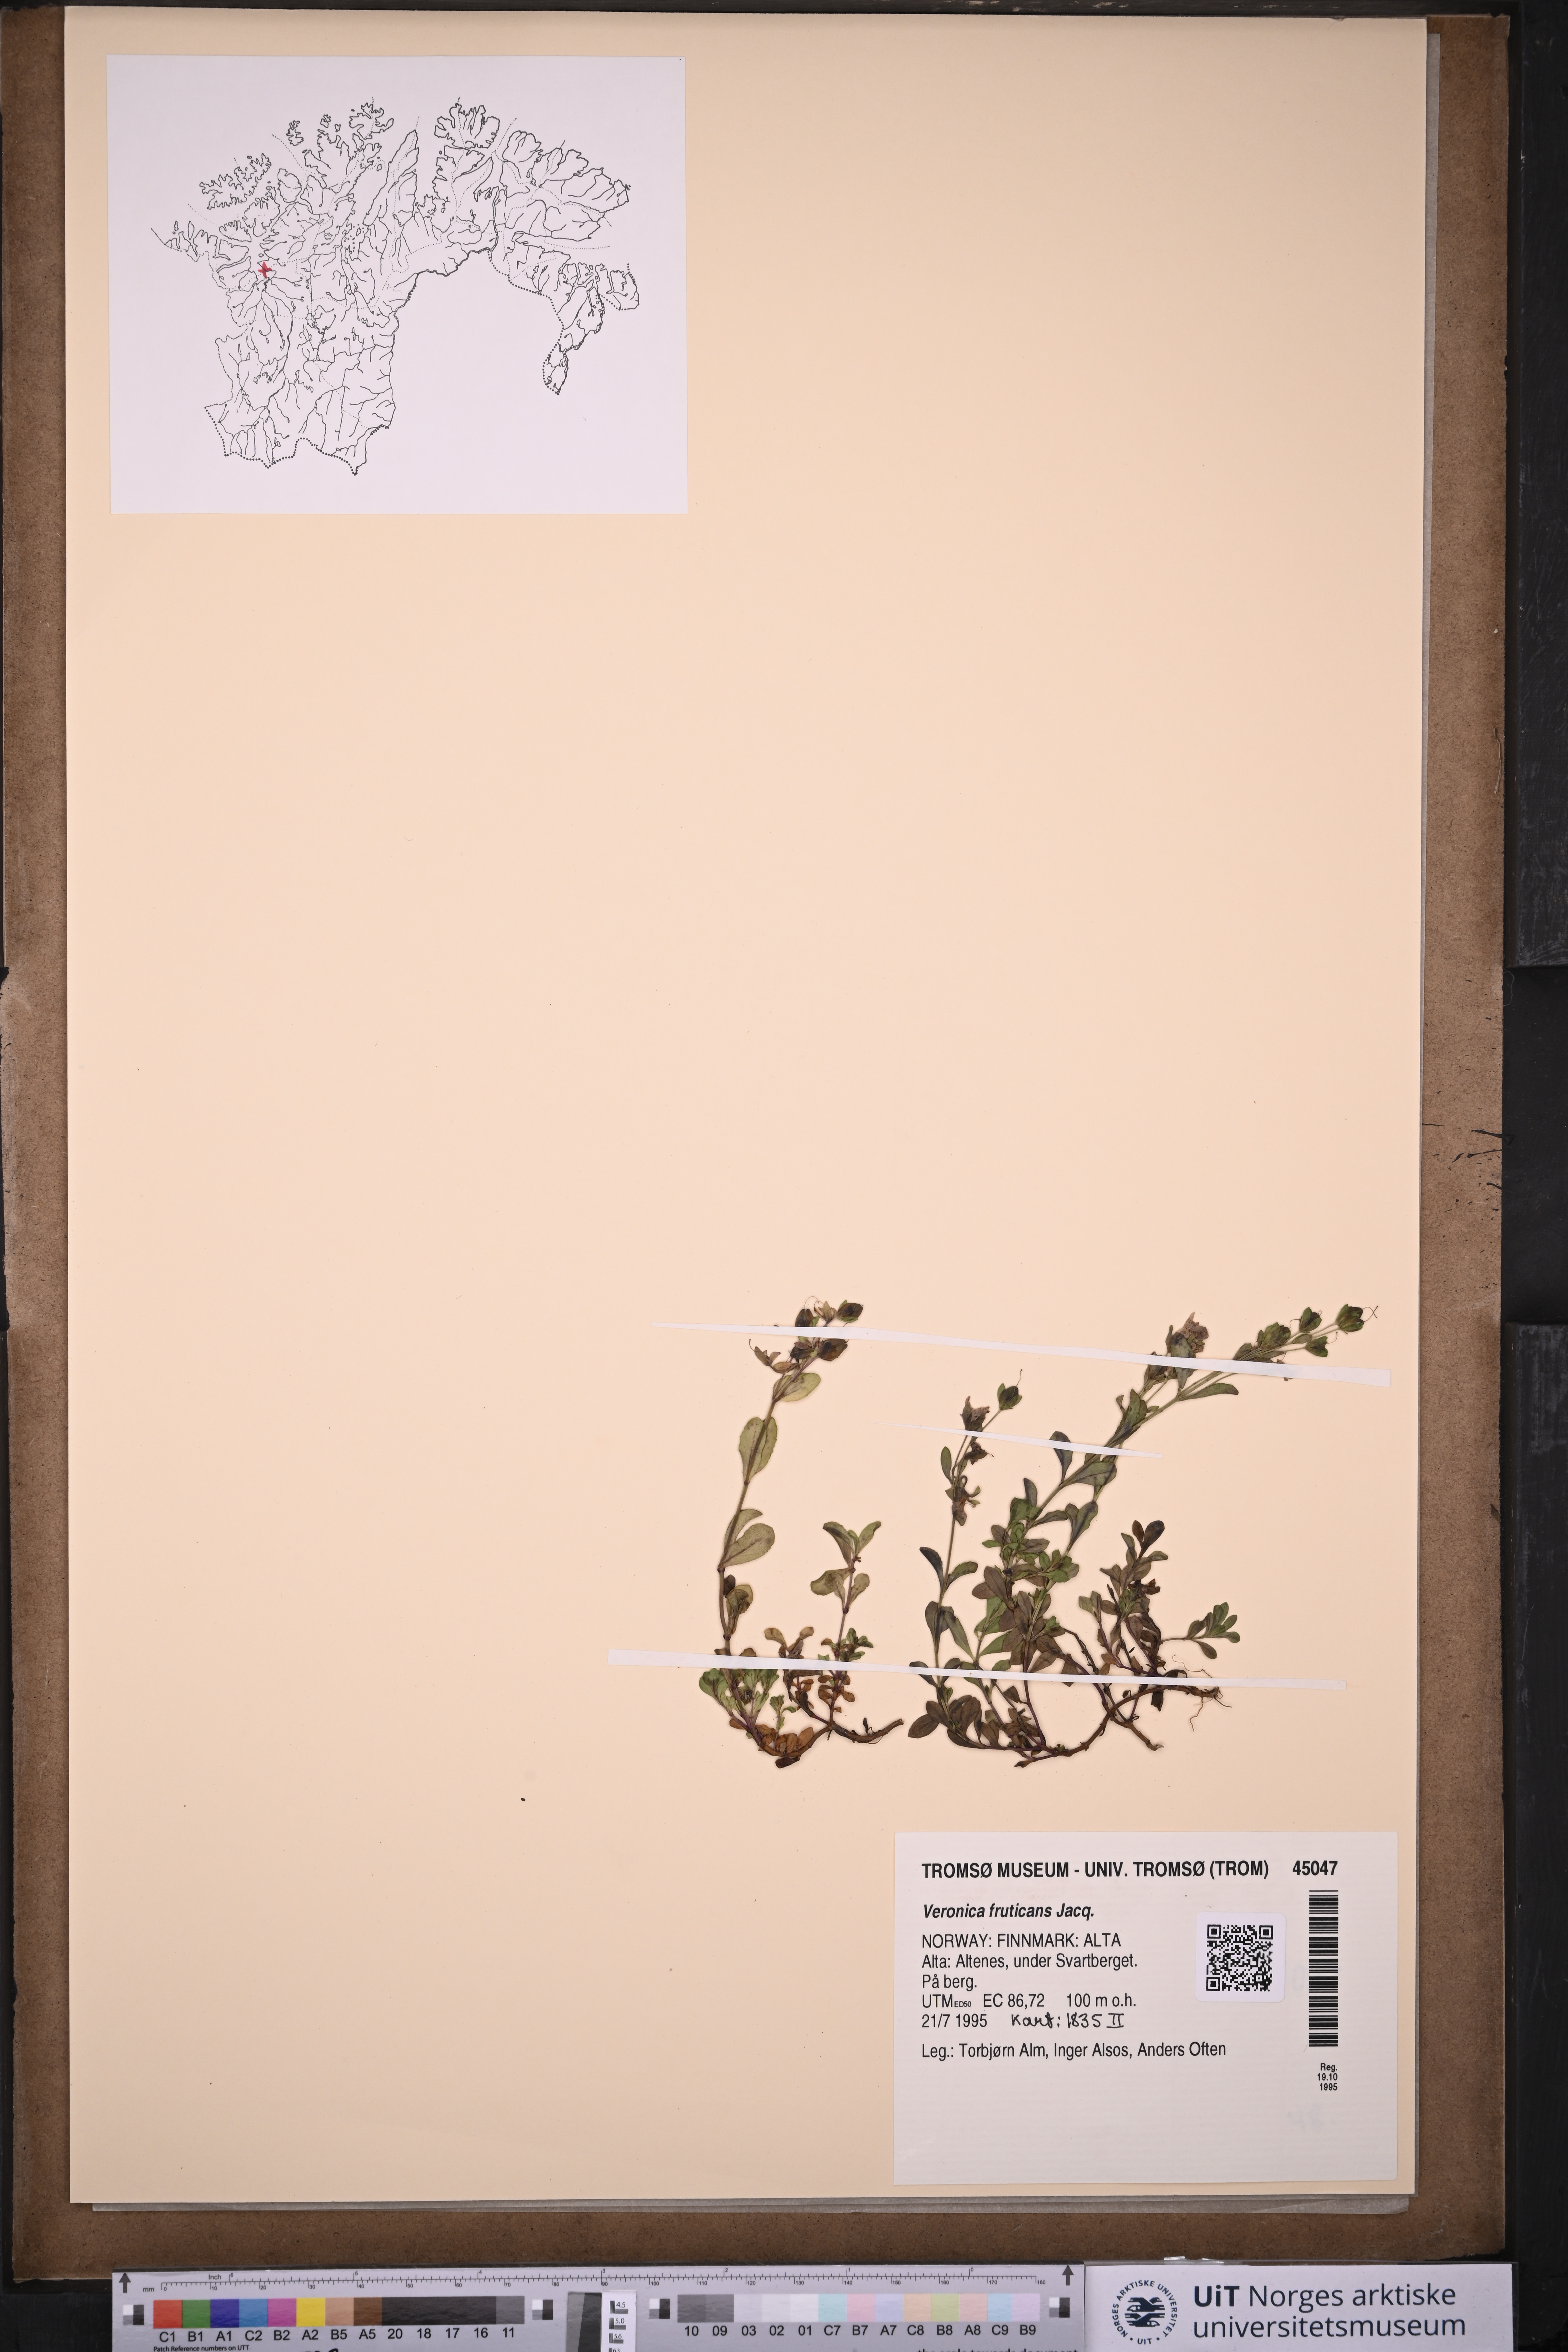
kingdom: Plantae
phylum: Tracheophyta
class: Magnoliopsida
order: Lamiales
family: Plantaginaceae
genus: Veronica
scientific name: Veronica fruticans
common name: Rock speedwell
